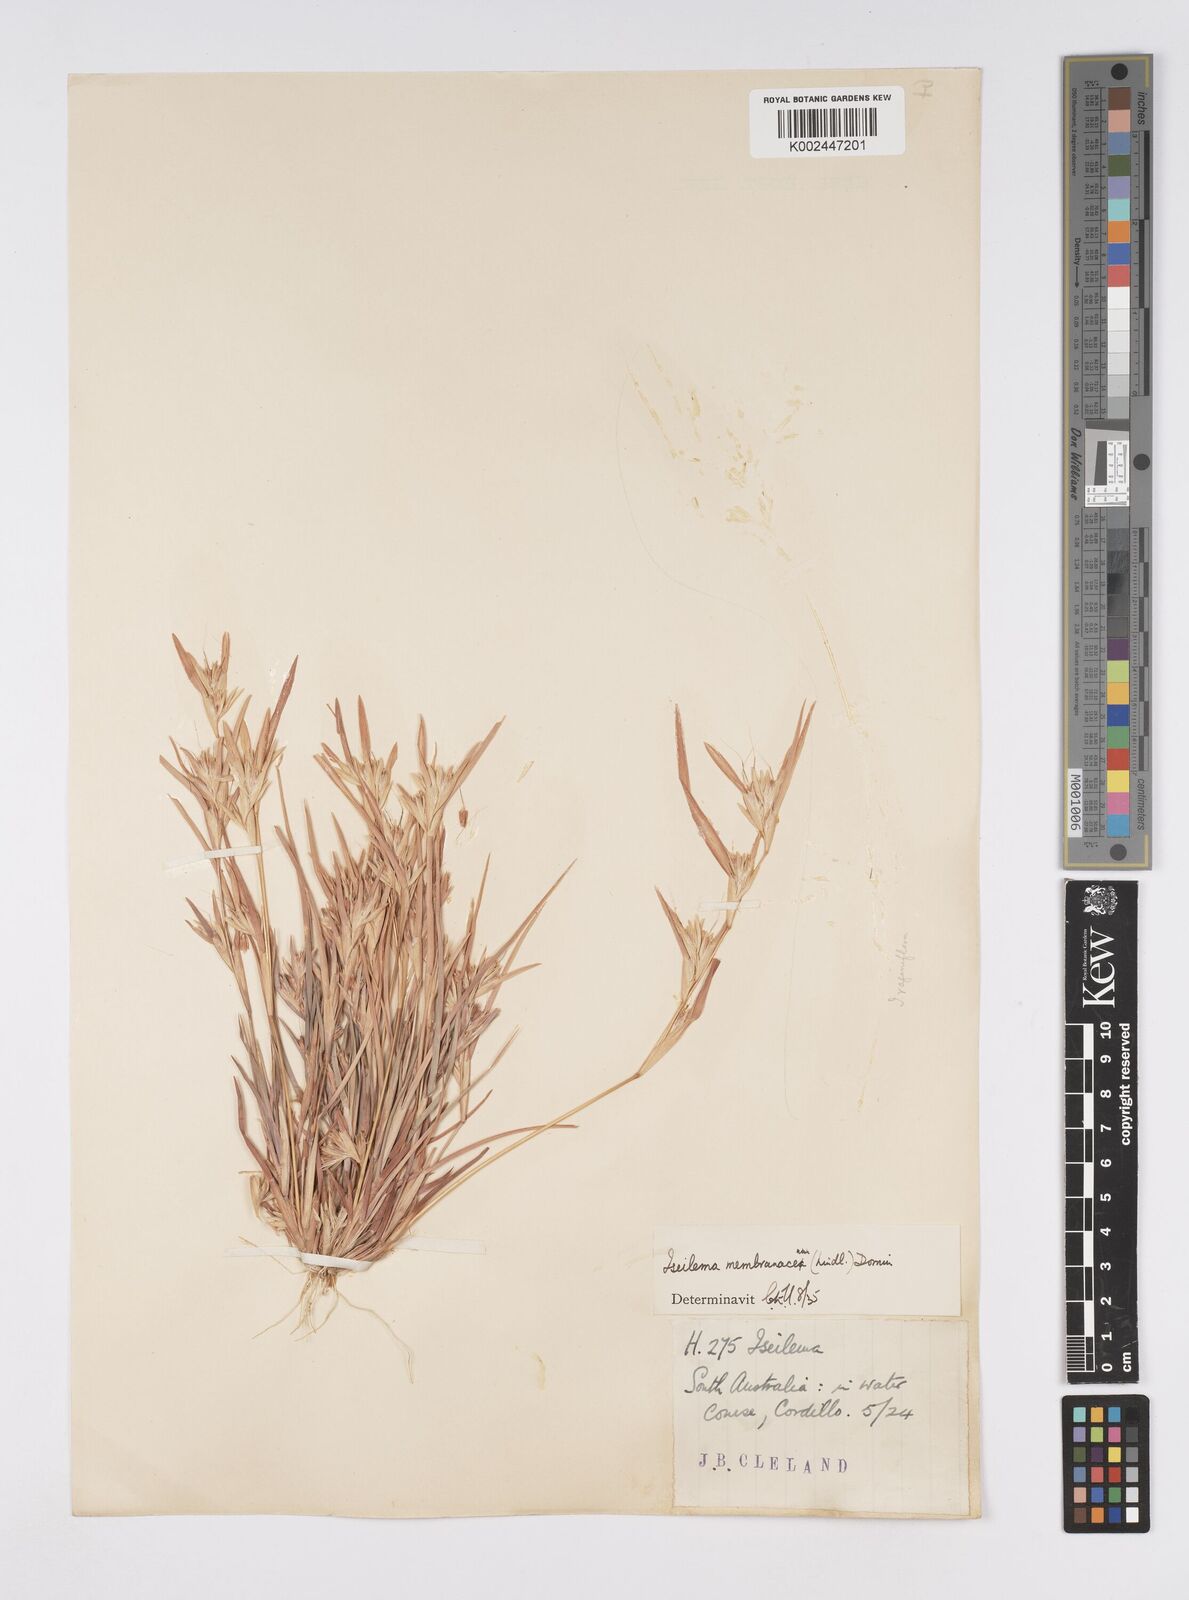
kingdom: Plantae
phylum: Tracheophyta
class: Liliopsida
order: Poales
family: Poaceae
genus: Iseilema
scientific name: Iseilema membranaceum
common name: Small flinders grass
